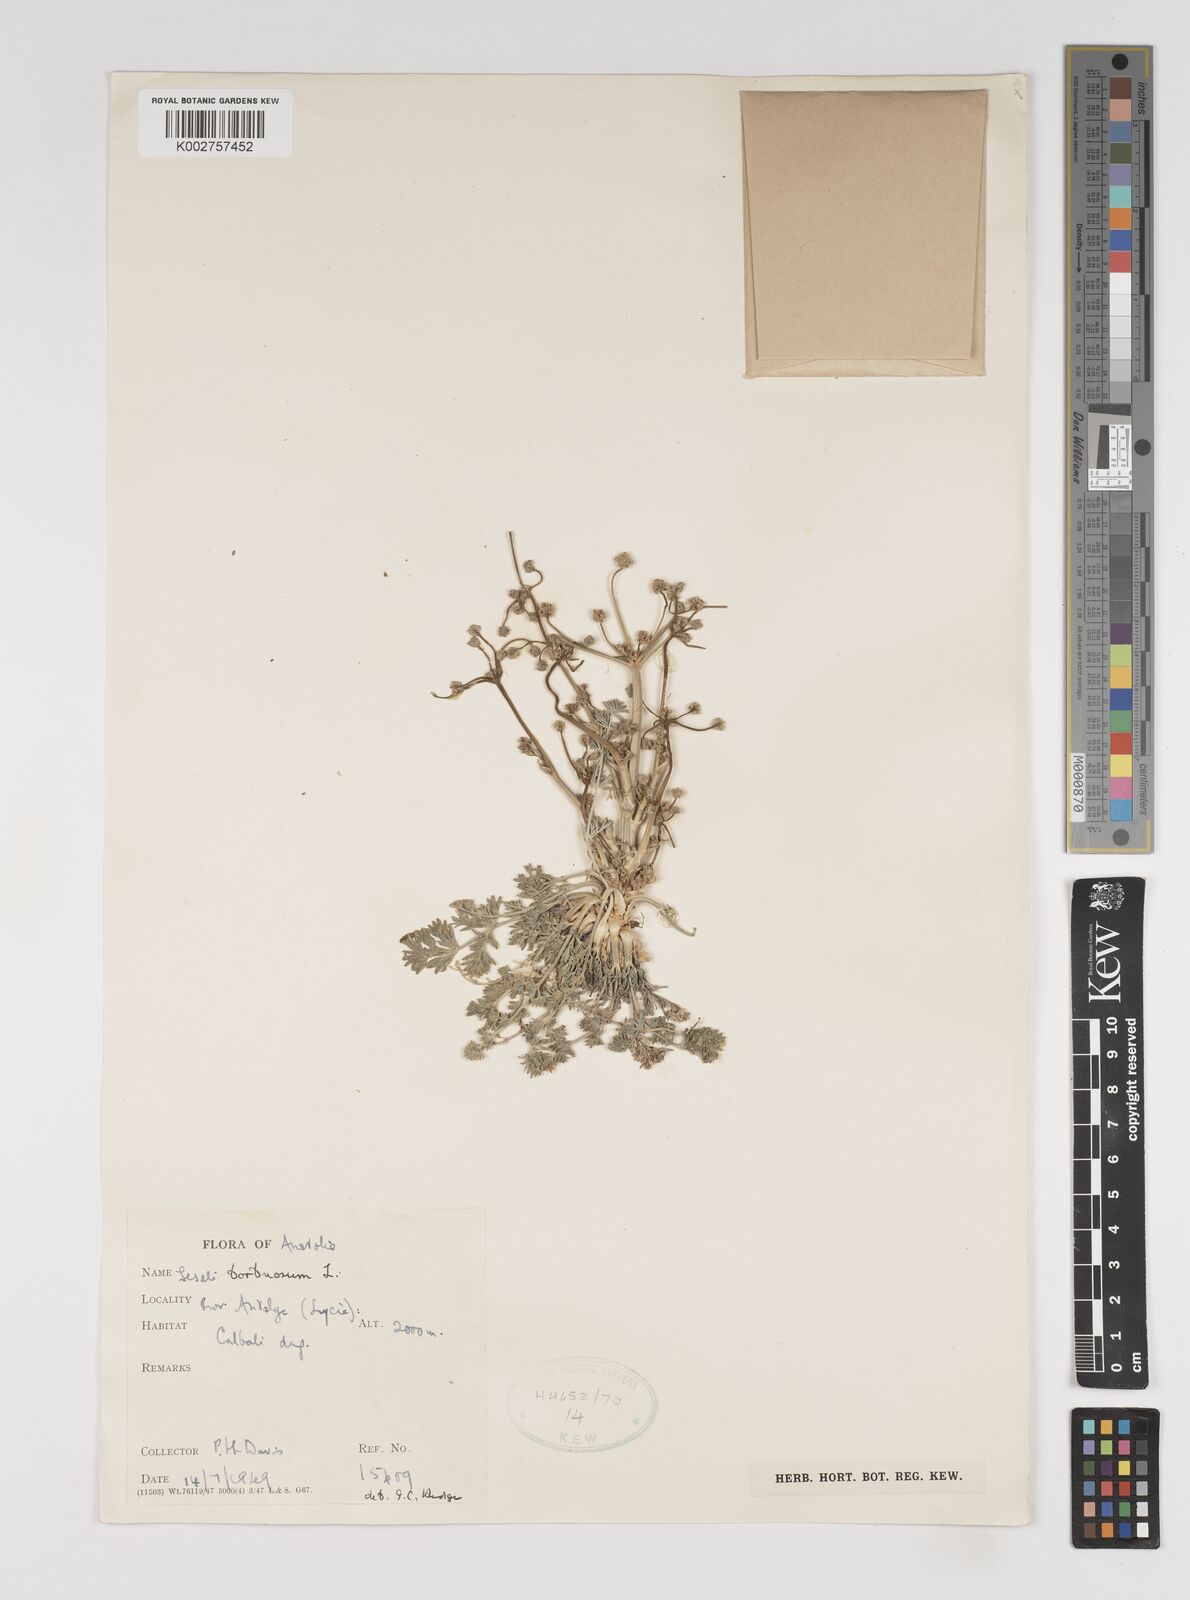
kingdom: Plantae
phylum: Tracheophyta
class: Magnoliopsida
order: Apiales
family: Apiaceae
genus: Seseli
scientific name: Seseli hartvigii
